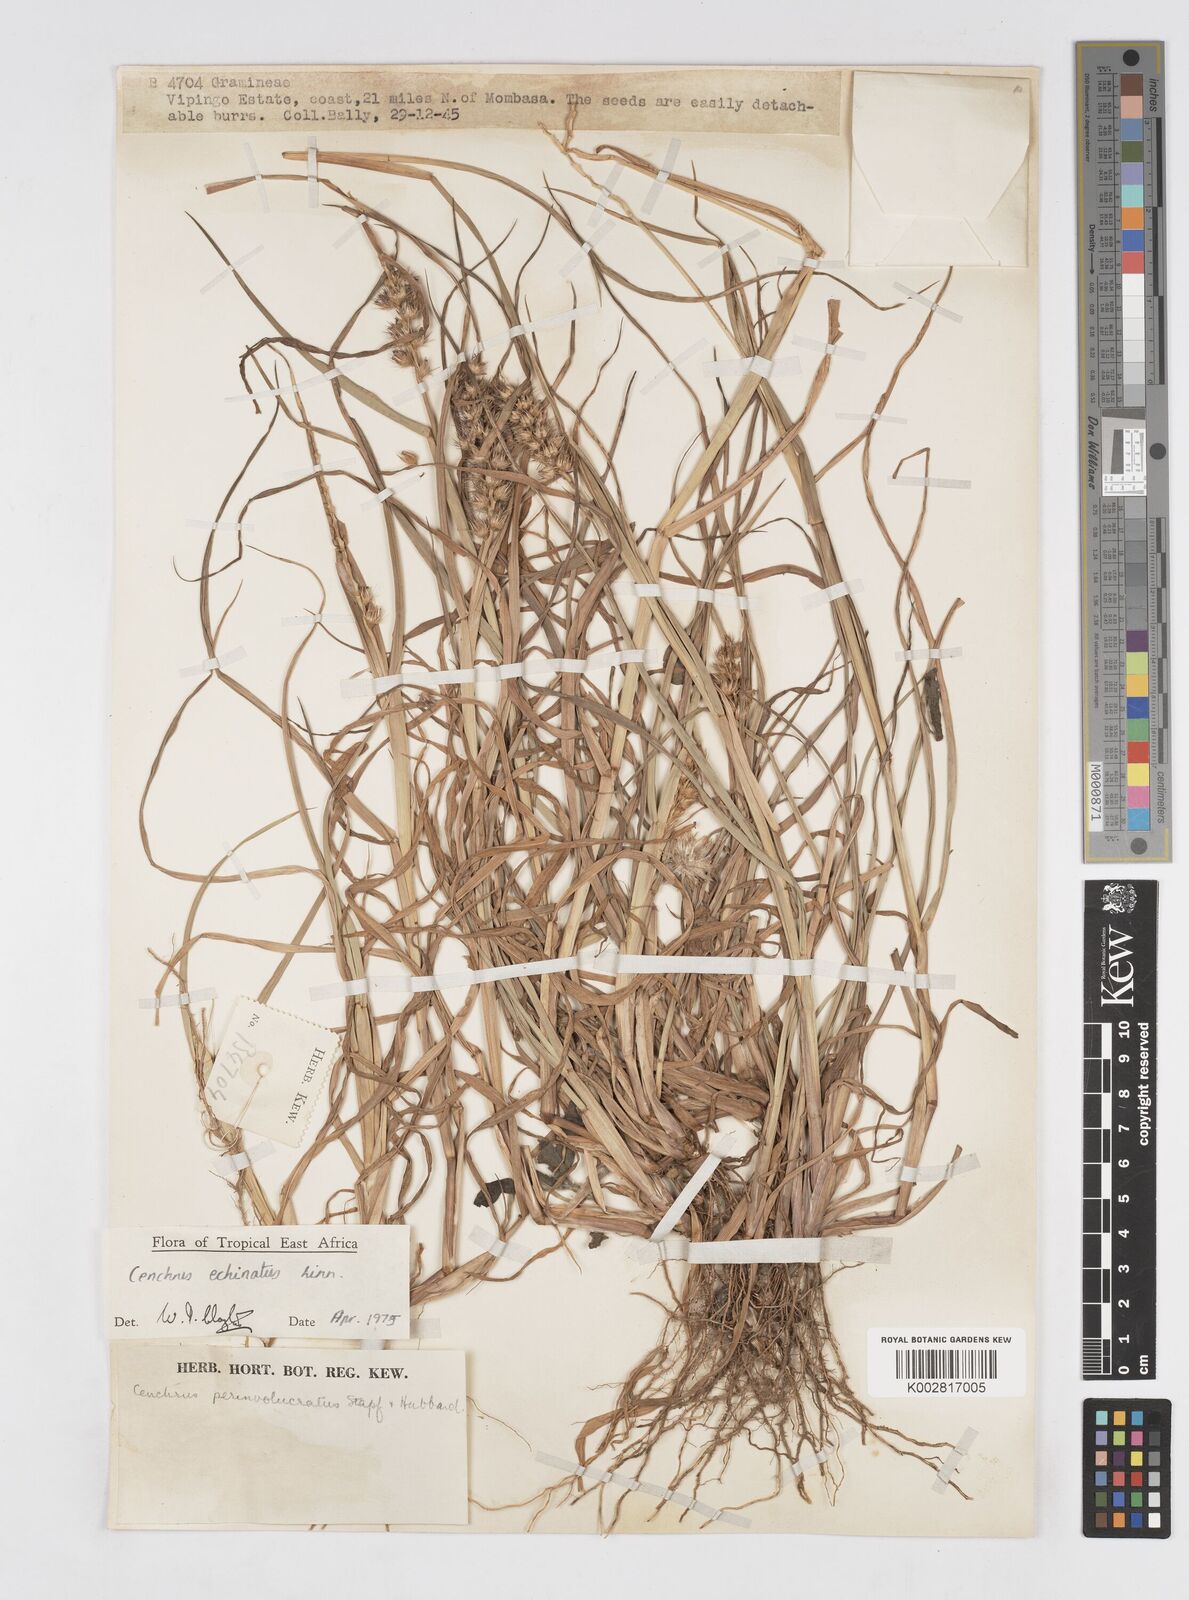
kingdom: Plantae
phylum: Tracheophyta
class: Liliopsida
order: Poales
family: Poaceae
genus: Cenchrus
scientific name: Cenchrus echinatus
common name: Southern sandbur
